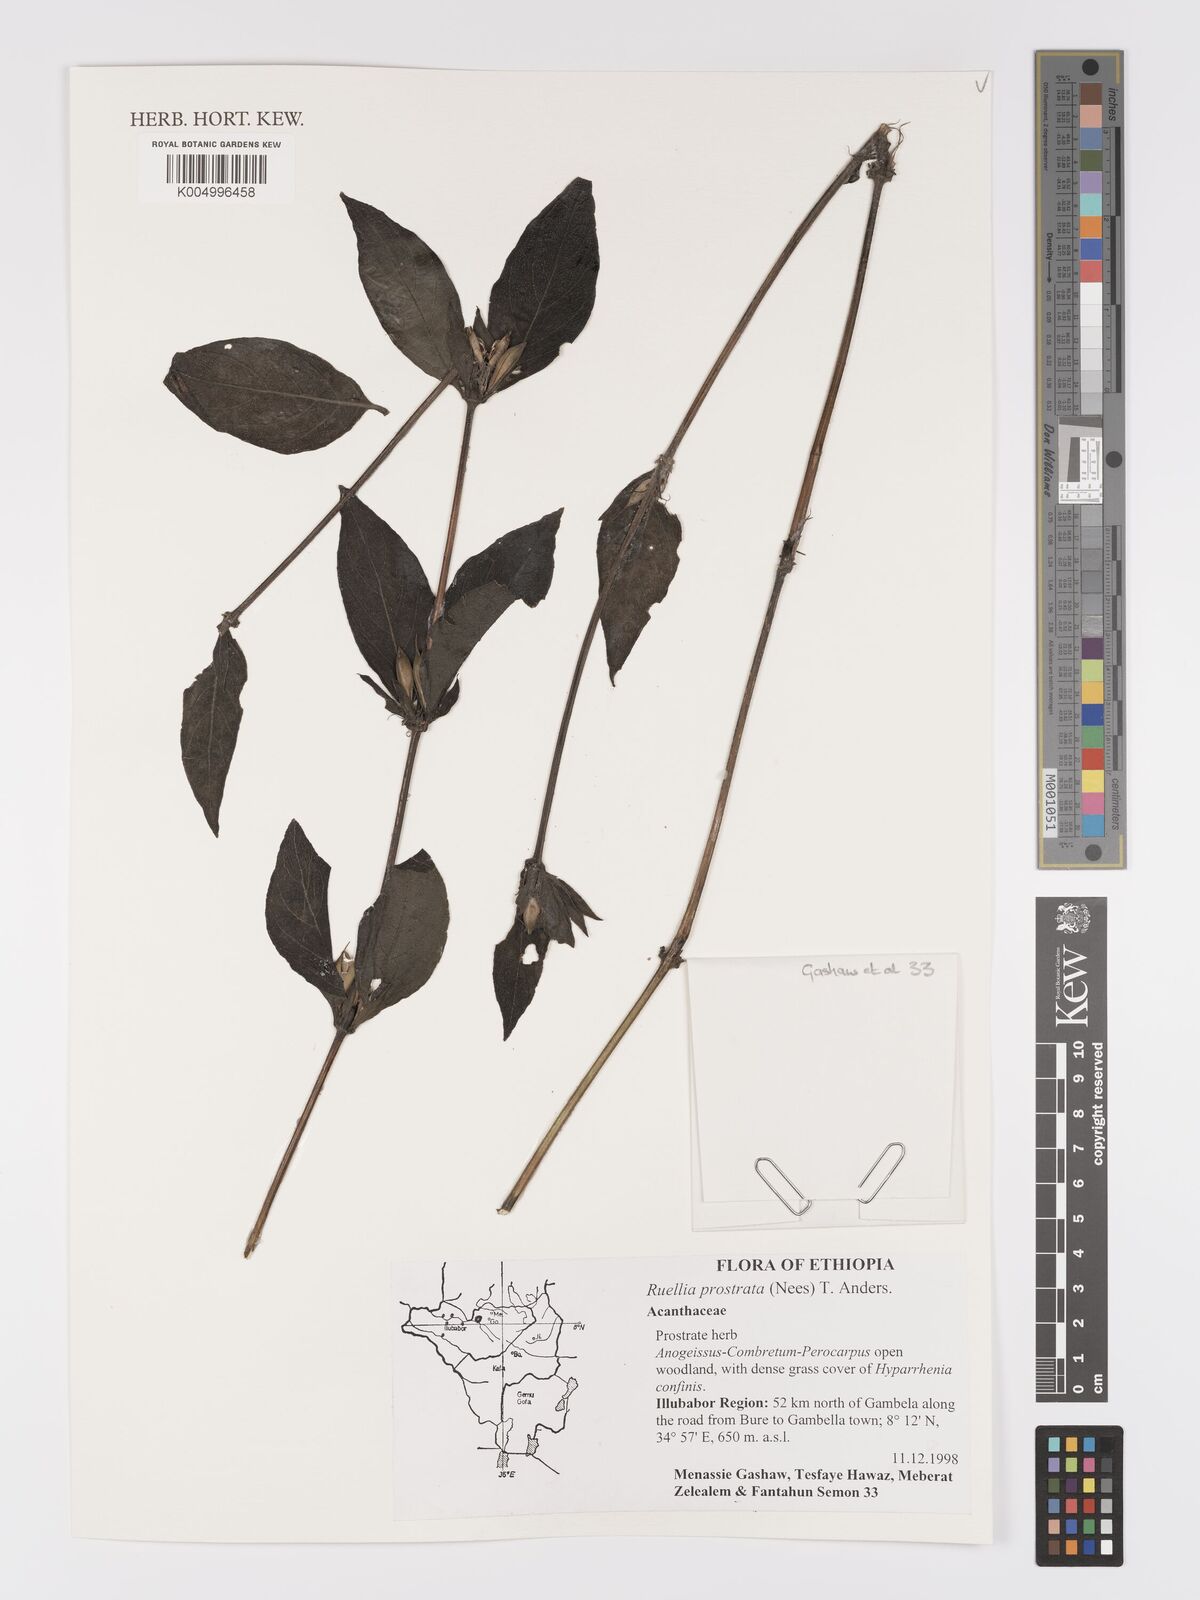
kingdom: Plantae
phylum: Tracheophyta
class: Magnoliopsida
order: Lamiales
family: Acanthaceae
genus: Ruellia
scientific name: Ruellia
